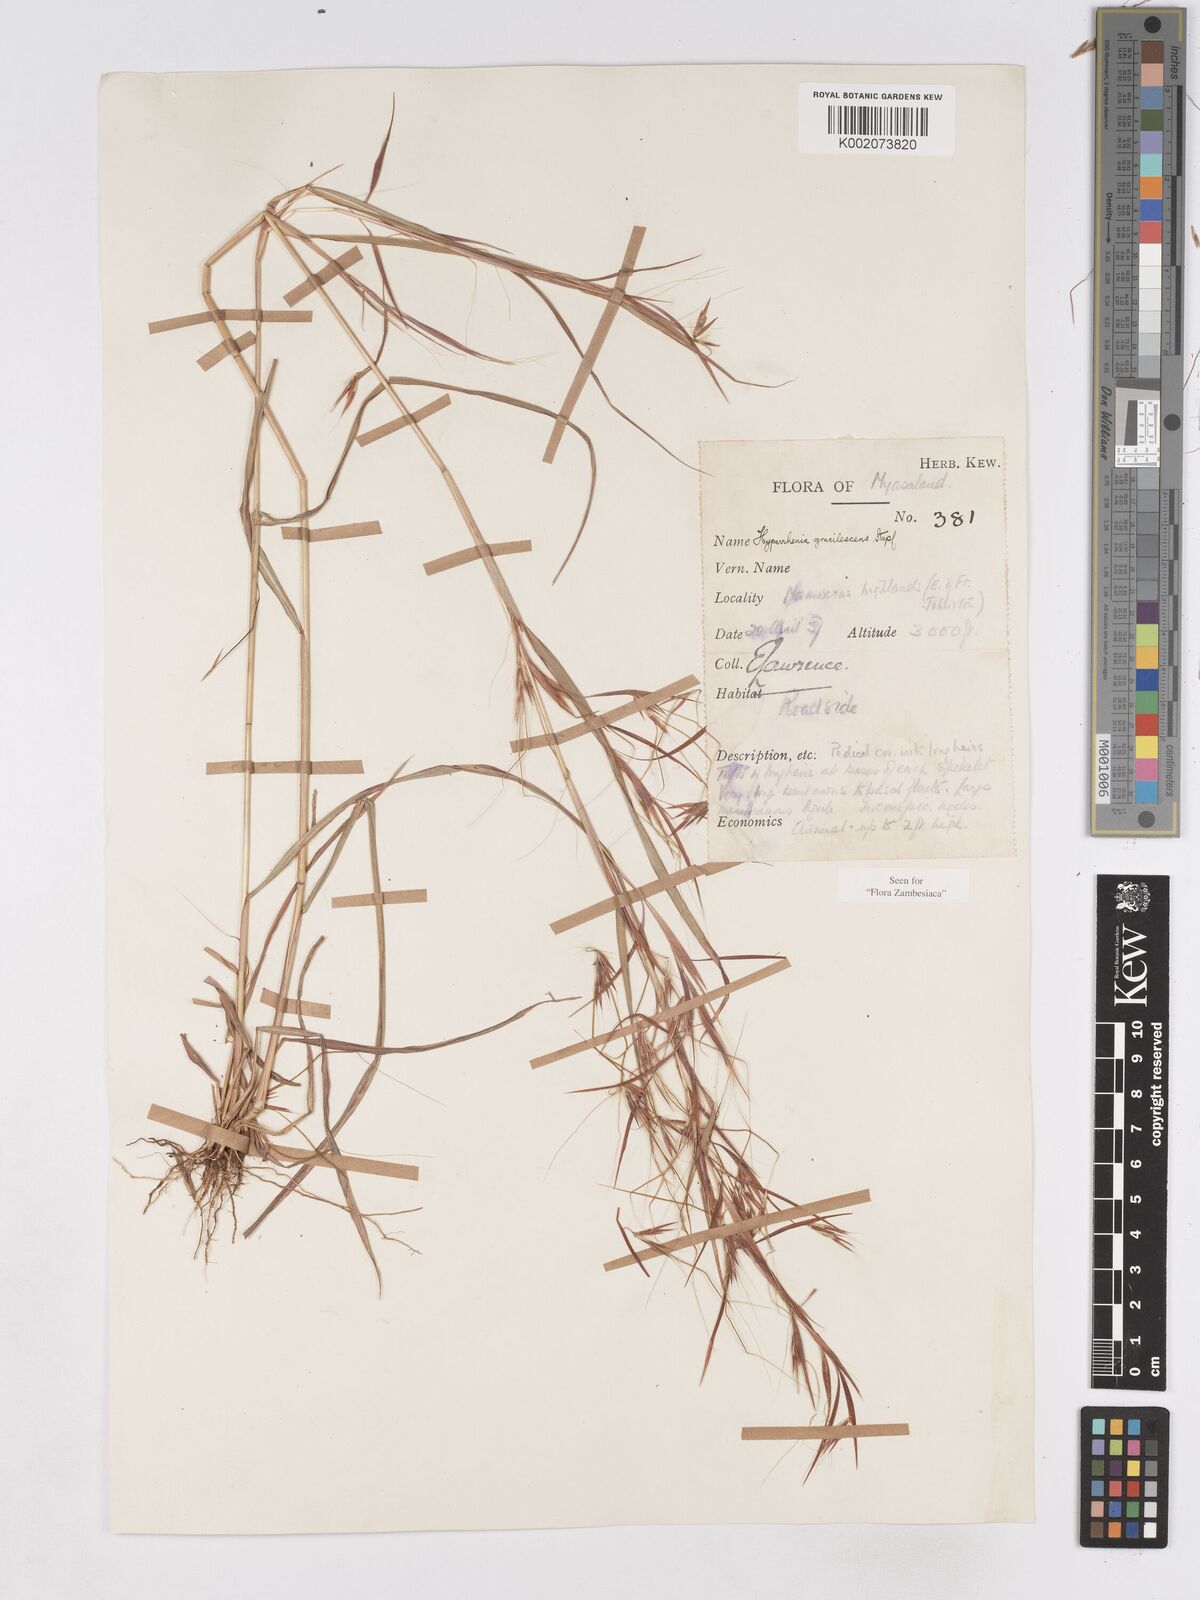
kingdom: Plantae
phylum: Tracheophyta
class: Liliopsida
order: Poales
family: Poaceae
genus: Hyparrhenia
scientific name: Hyparrhenia welwitschii
